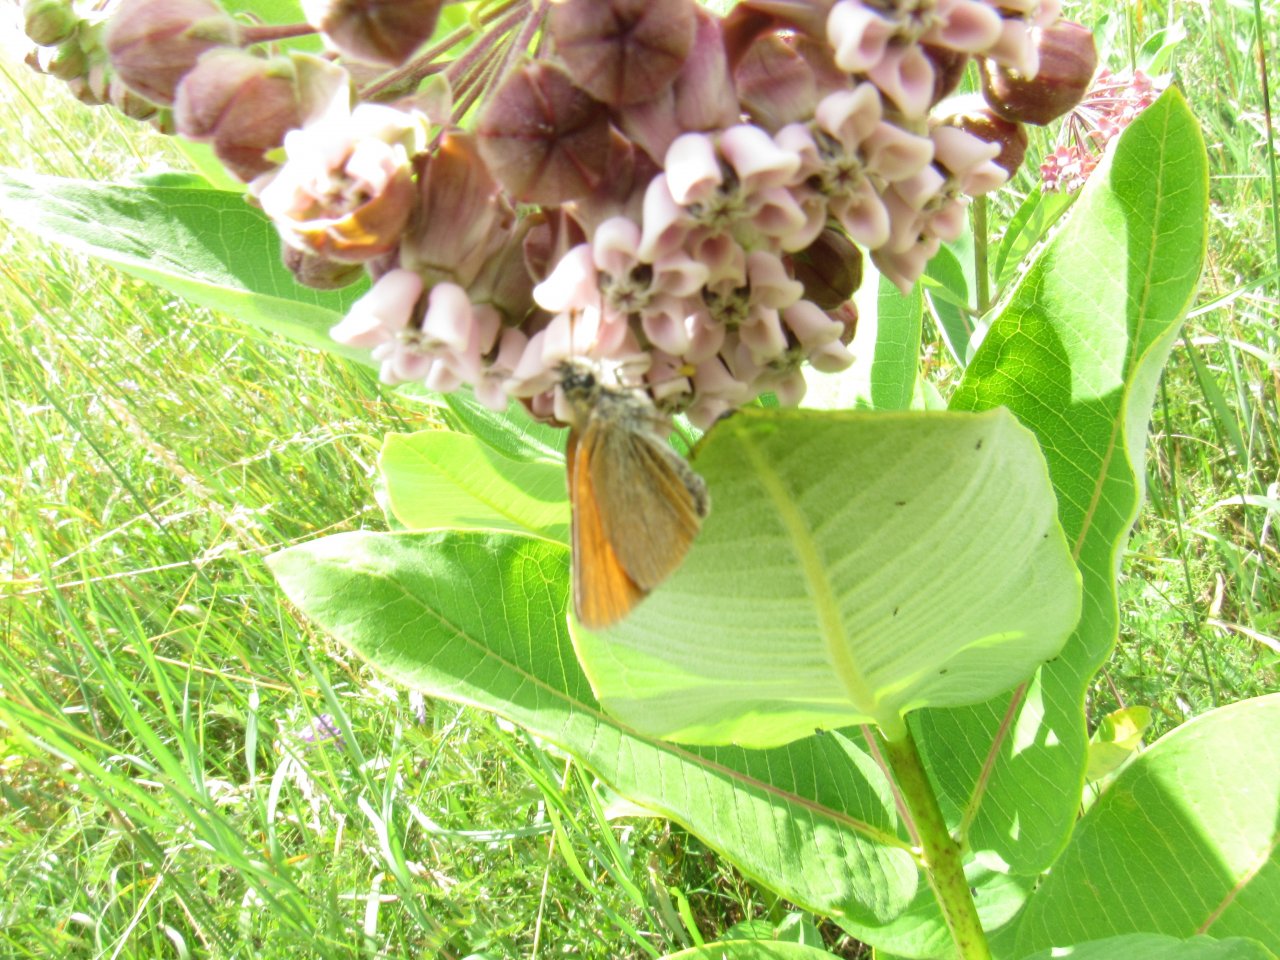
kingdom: Animalia
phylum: Arthropoda
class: Insecta
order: Lepidoptera
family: Hesperiidae
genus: Thymelicus
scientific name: Thymelicus lineola
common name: European Skipper
